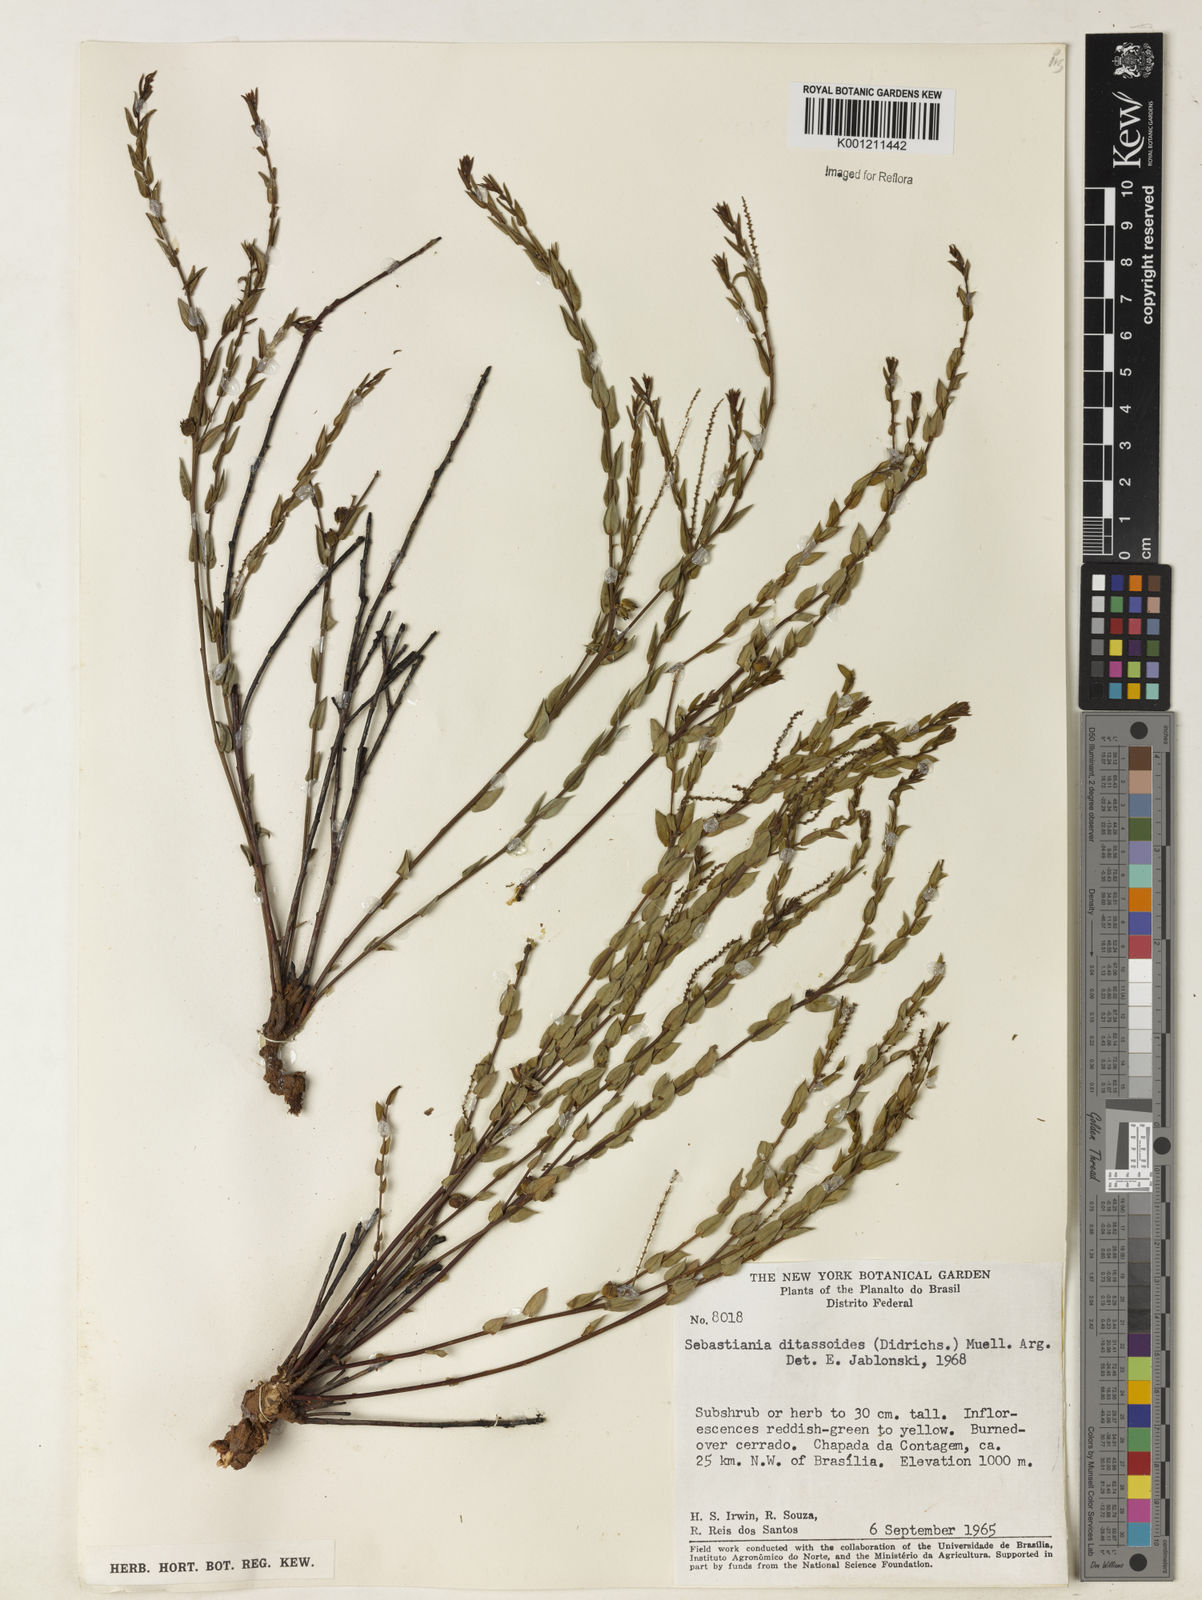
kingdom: Plantae
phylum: Tracheophyta
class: Magnoliopsida
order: Malpighiales
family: Euphorbiaceae
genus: Microstachys
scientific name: Microstachys ditassoides
